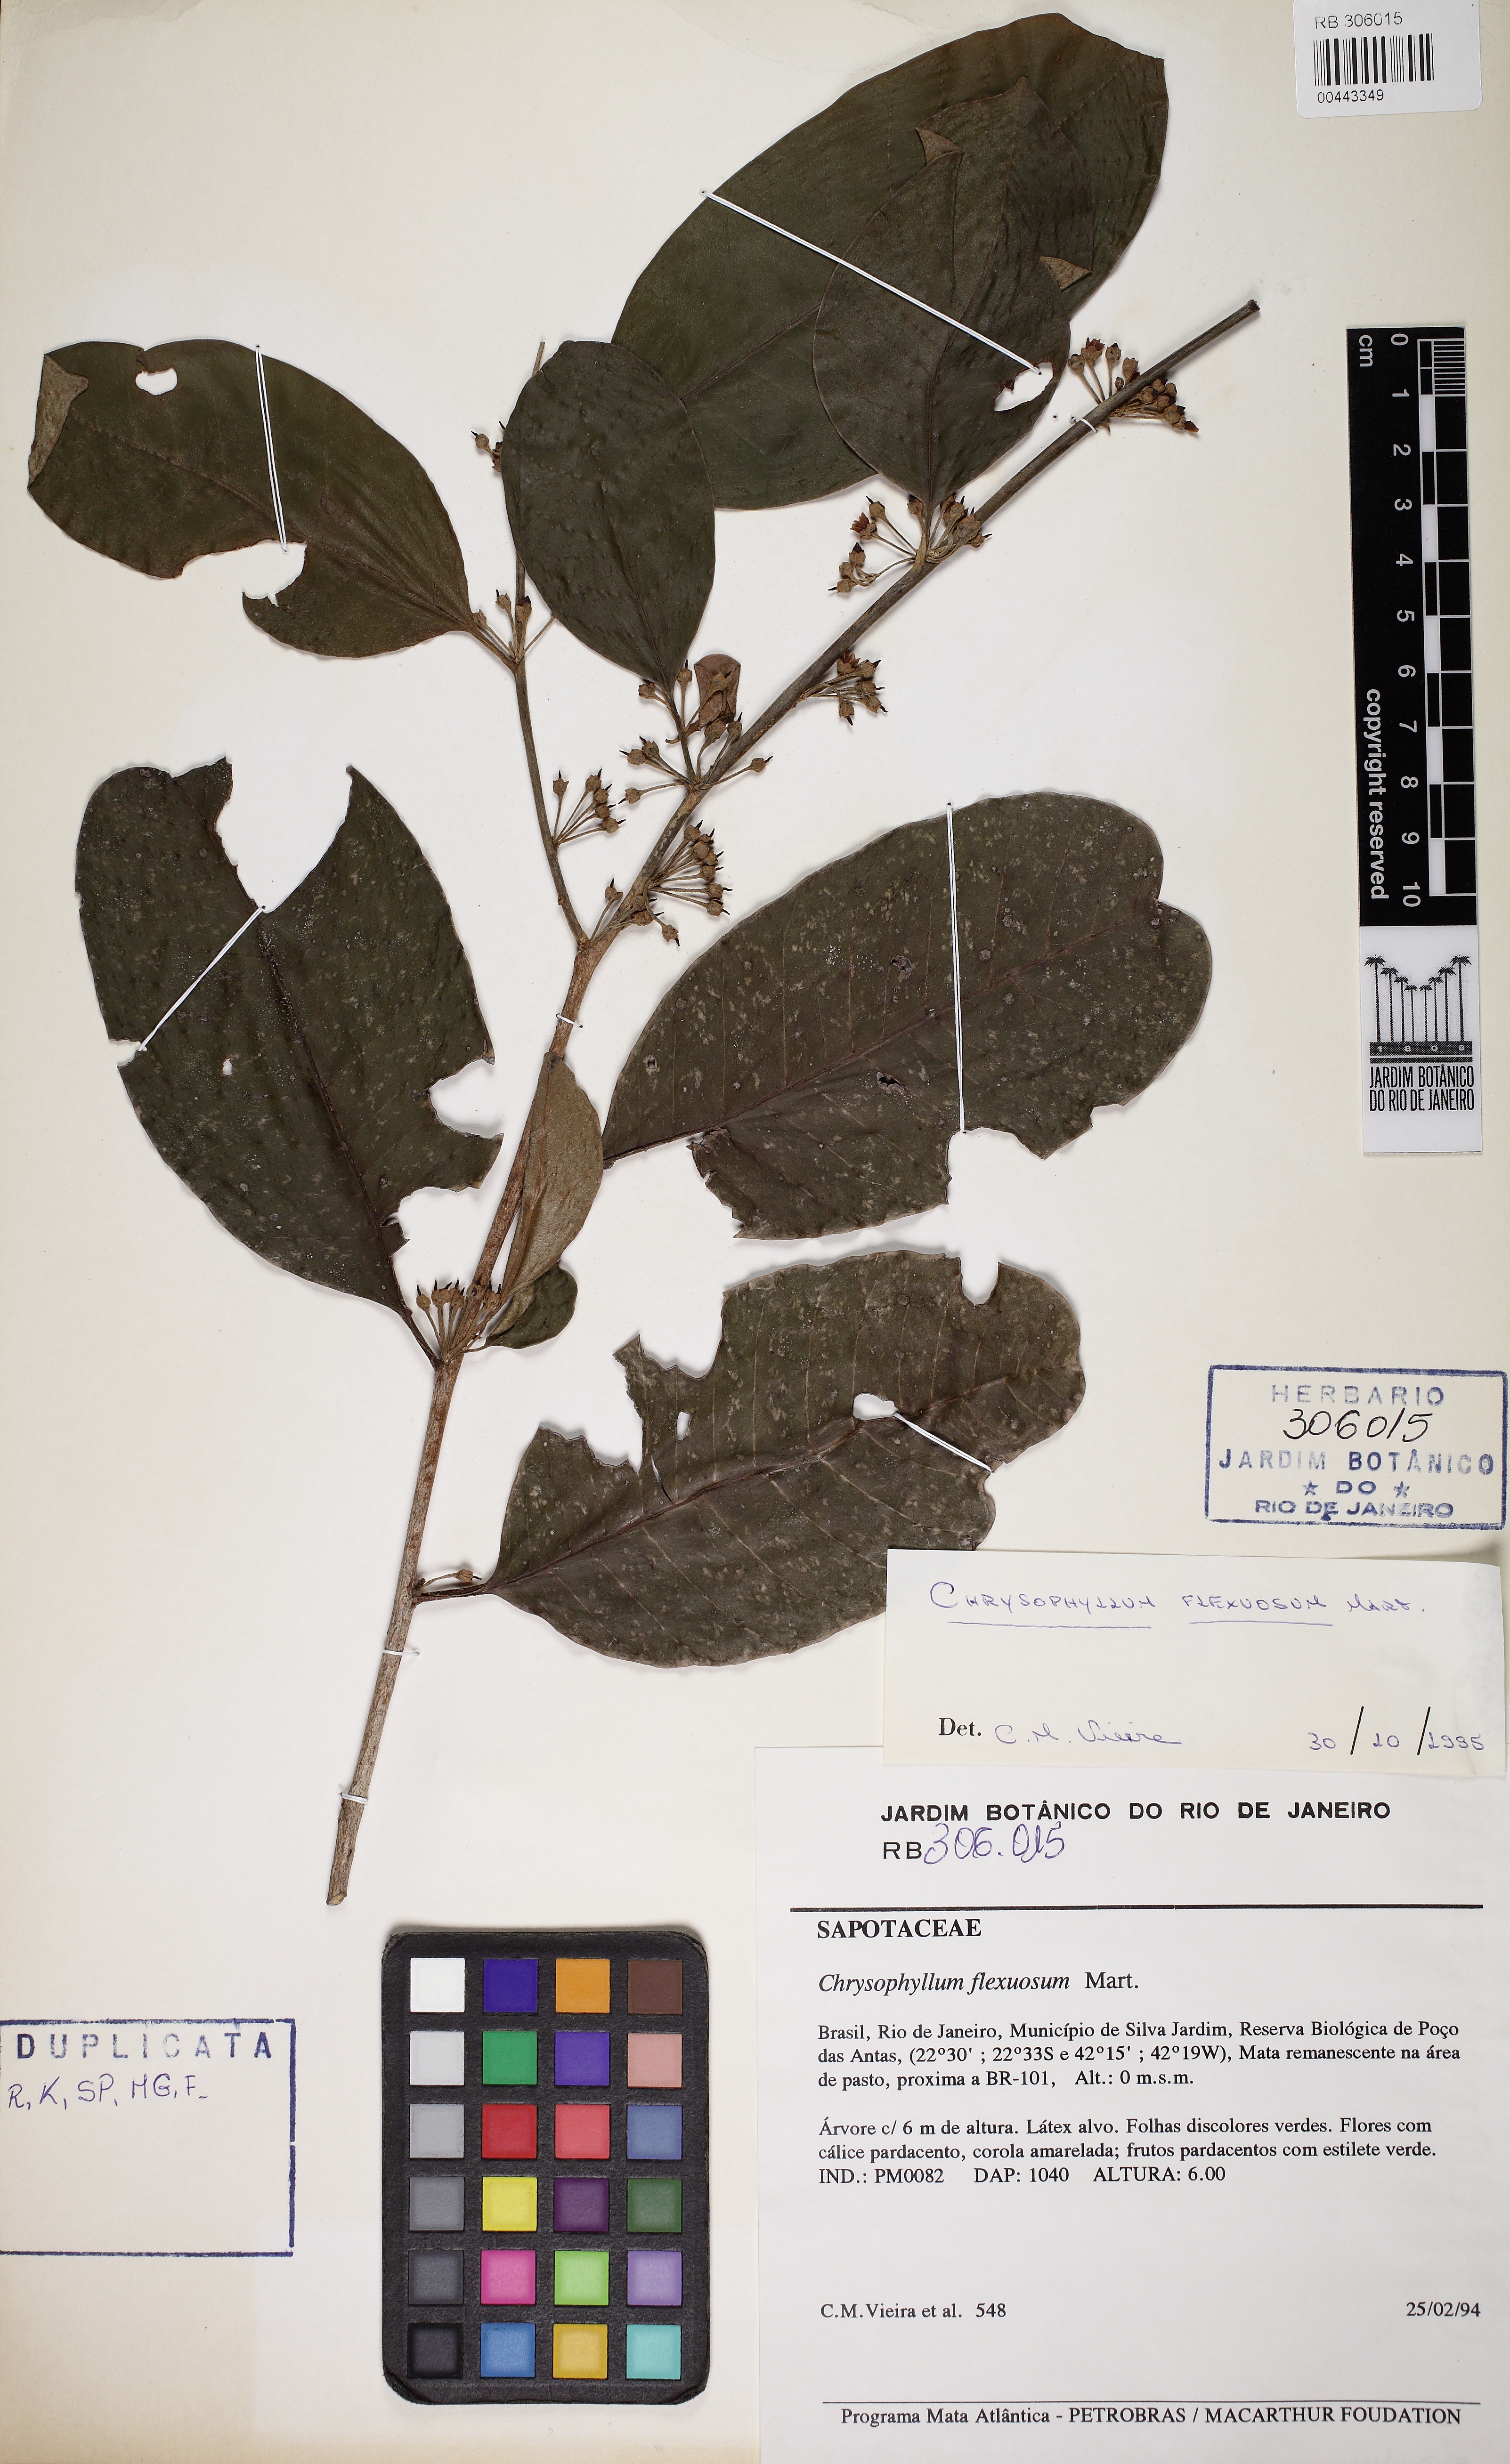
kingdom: Plantae
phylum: Tracheophyta
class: Magnoliopsida
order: Ericales
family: Sapotaceae
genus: Chrysophyllum
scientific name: Chrysophyllum flexuosum
